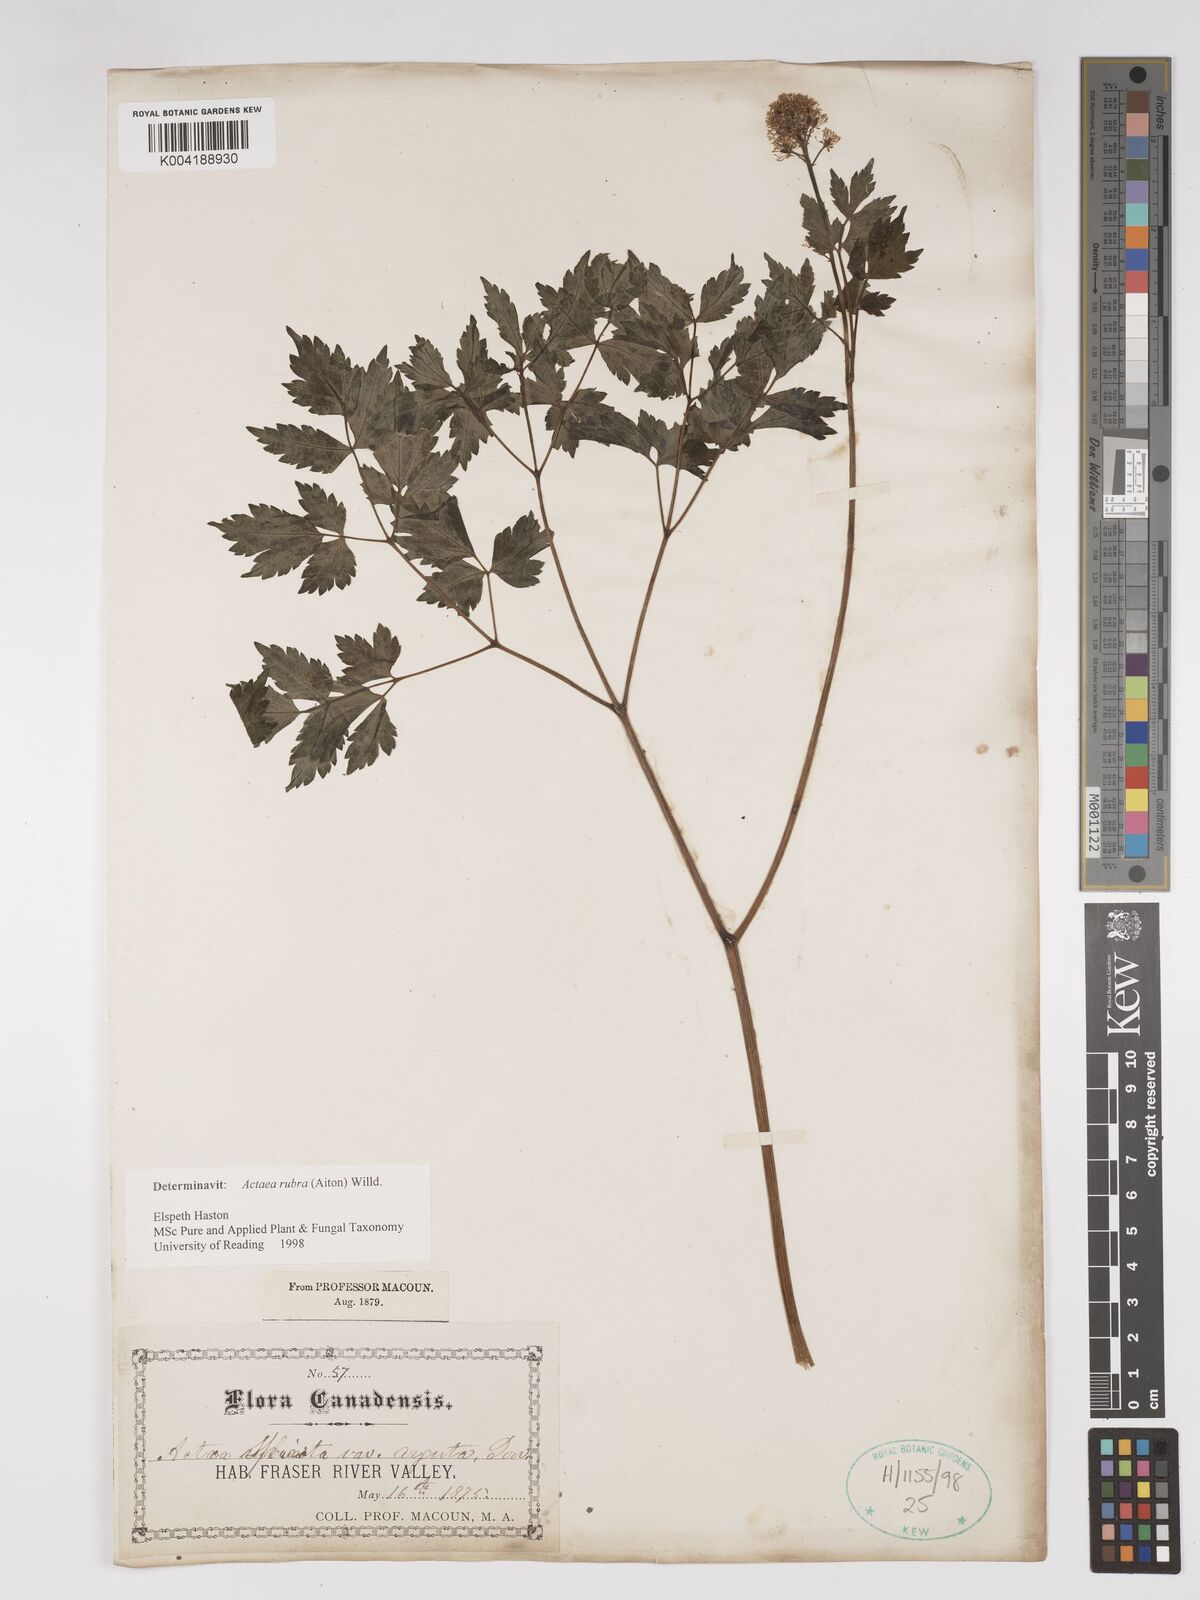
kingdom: Plantae
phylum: Tracheophyta
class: Magnoliopsida
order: Ranunculales
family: Ranunculaceae
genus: Actaea
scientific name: Actaea rubra
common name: Red baneberry
